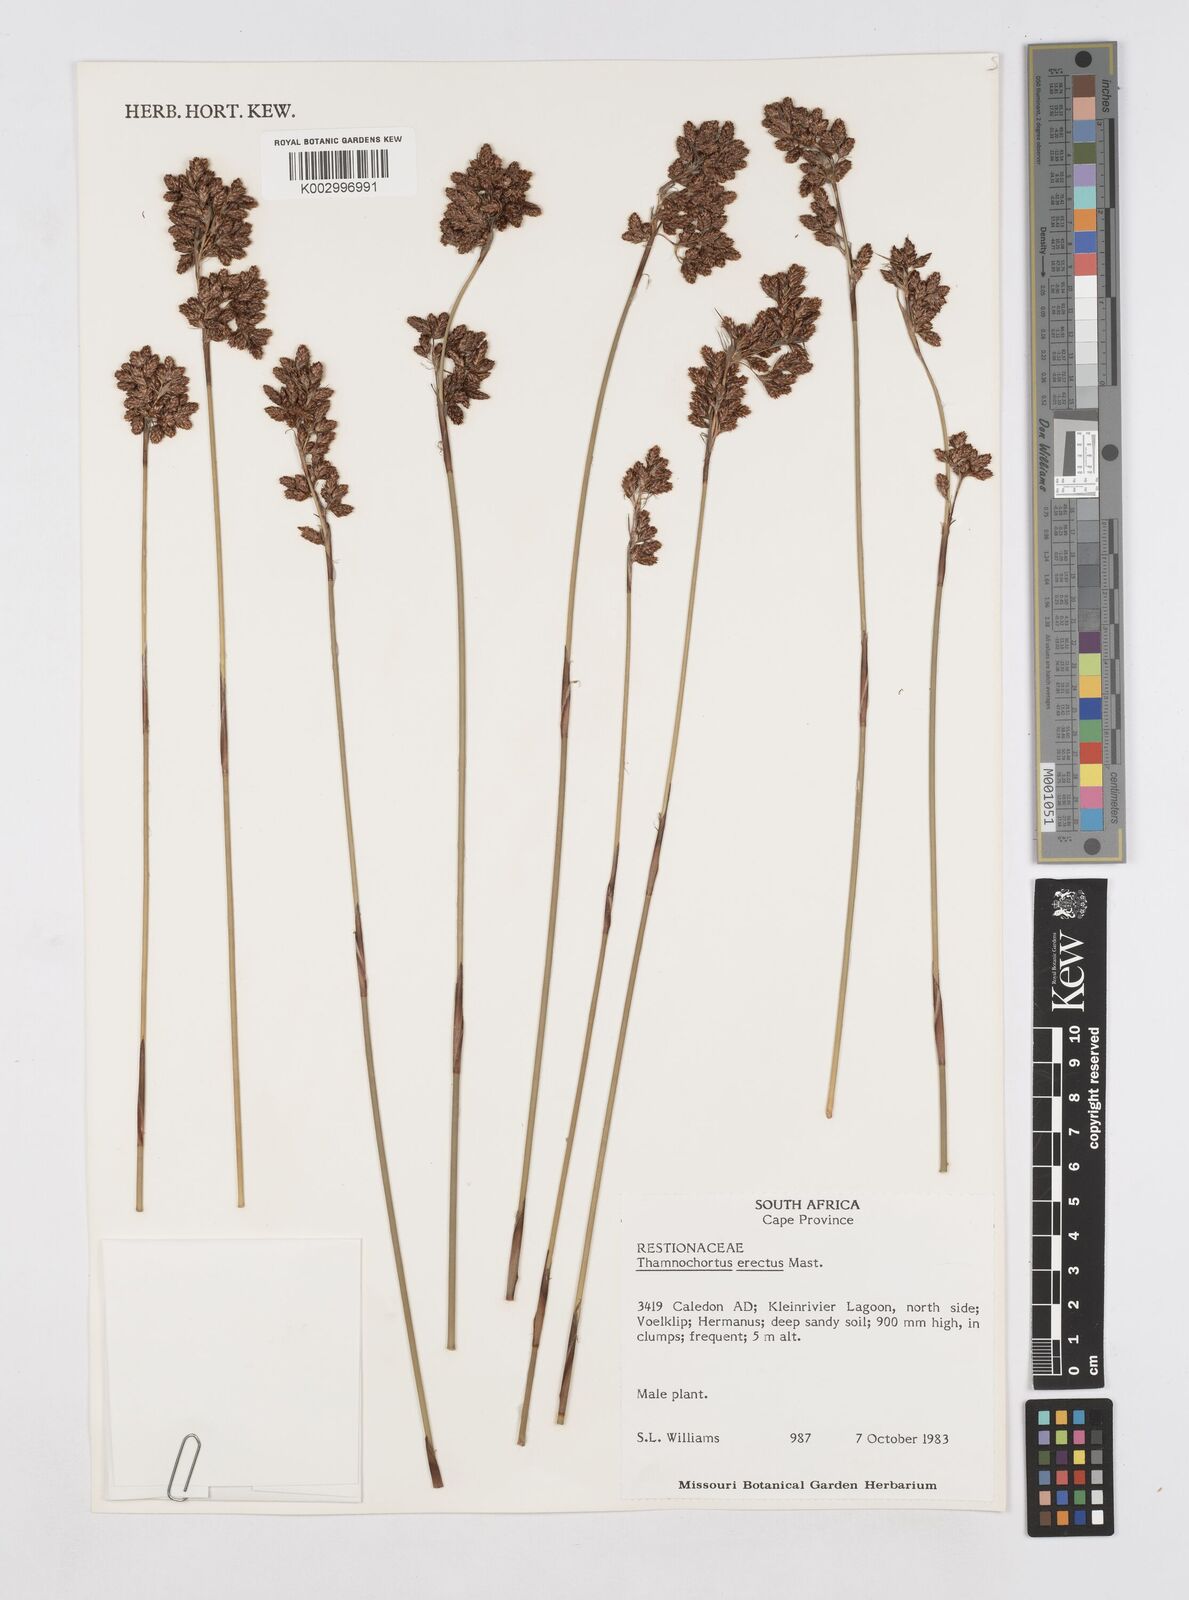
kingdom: Plantae
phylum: Tracheophyta
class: Liliopsida
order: Poales
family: Restionaceae
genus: Thamnochortus
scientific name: Thamnochortus erectus
